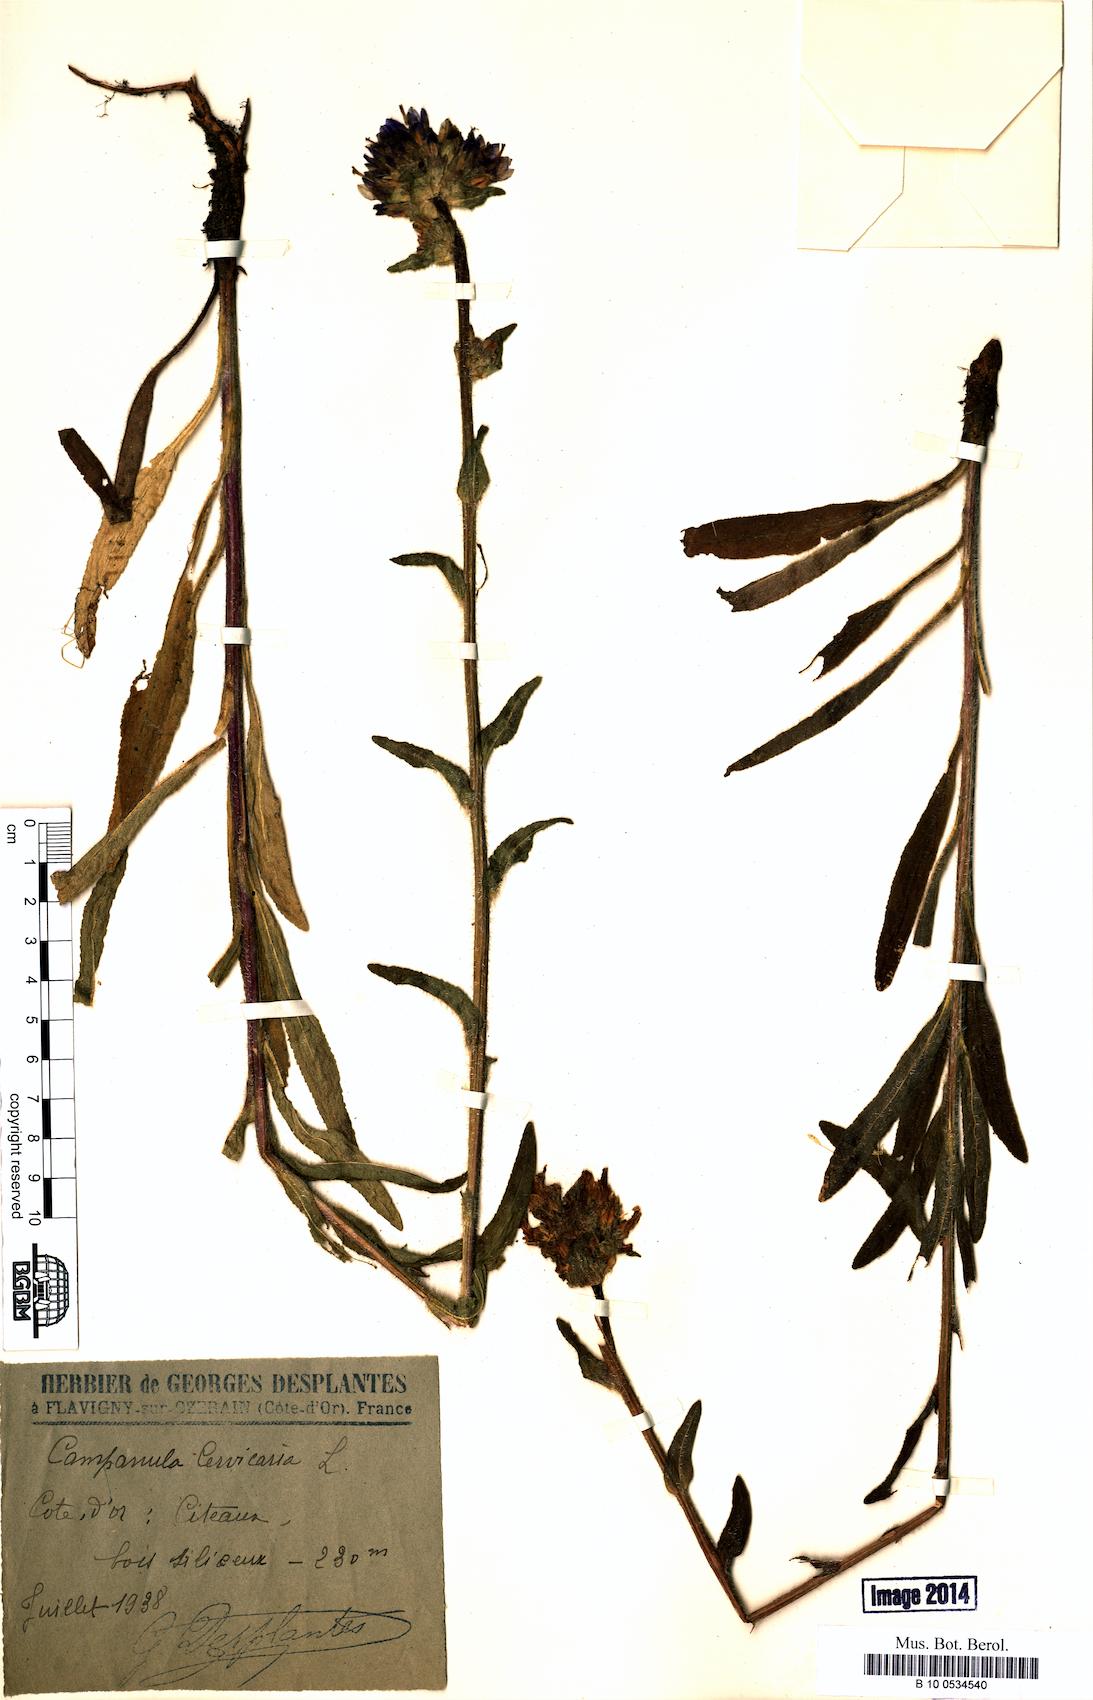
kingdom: Plantae
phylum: Tracheophyta
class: Magnoliopsida
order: Asterales
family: Campanulaceae
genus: Campanula
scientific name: Campanula cervicaria
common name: Bristly bellflower
